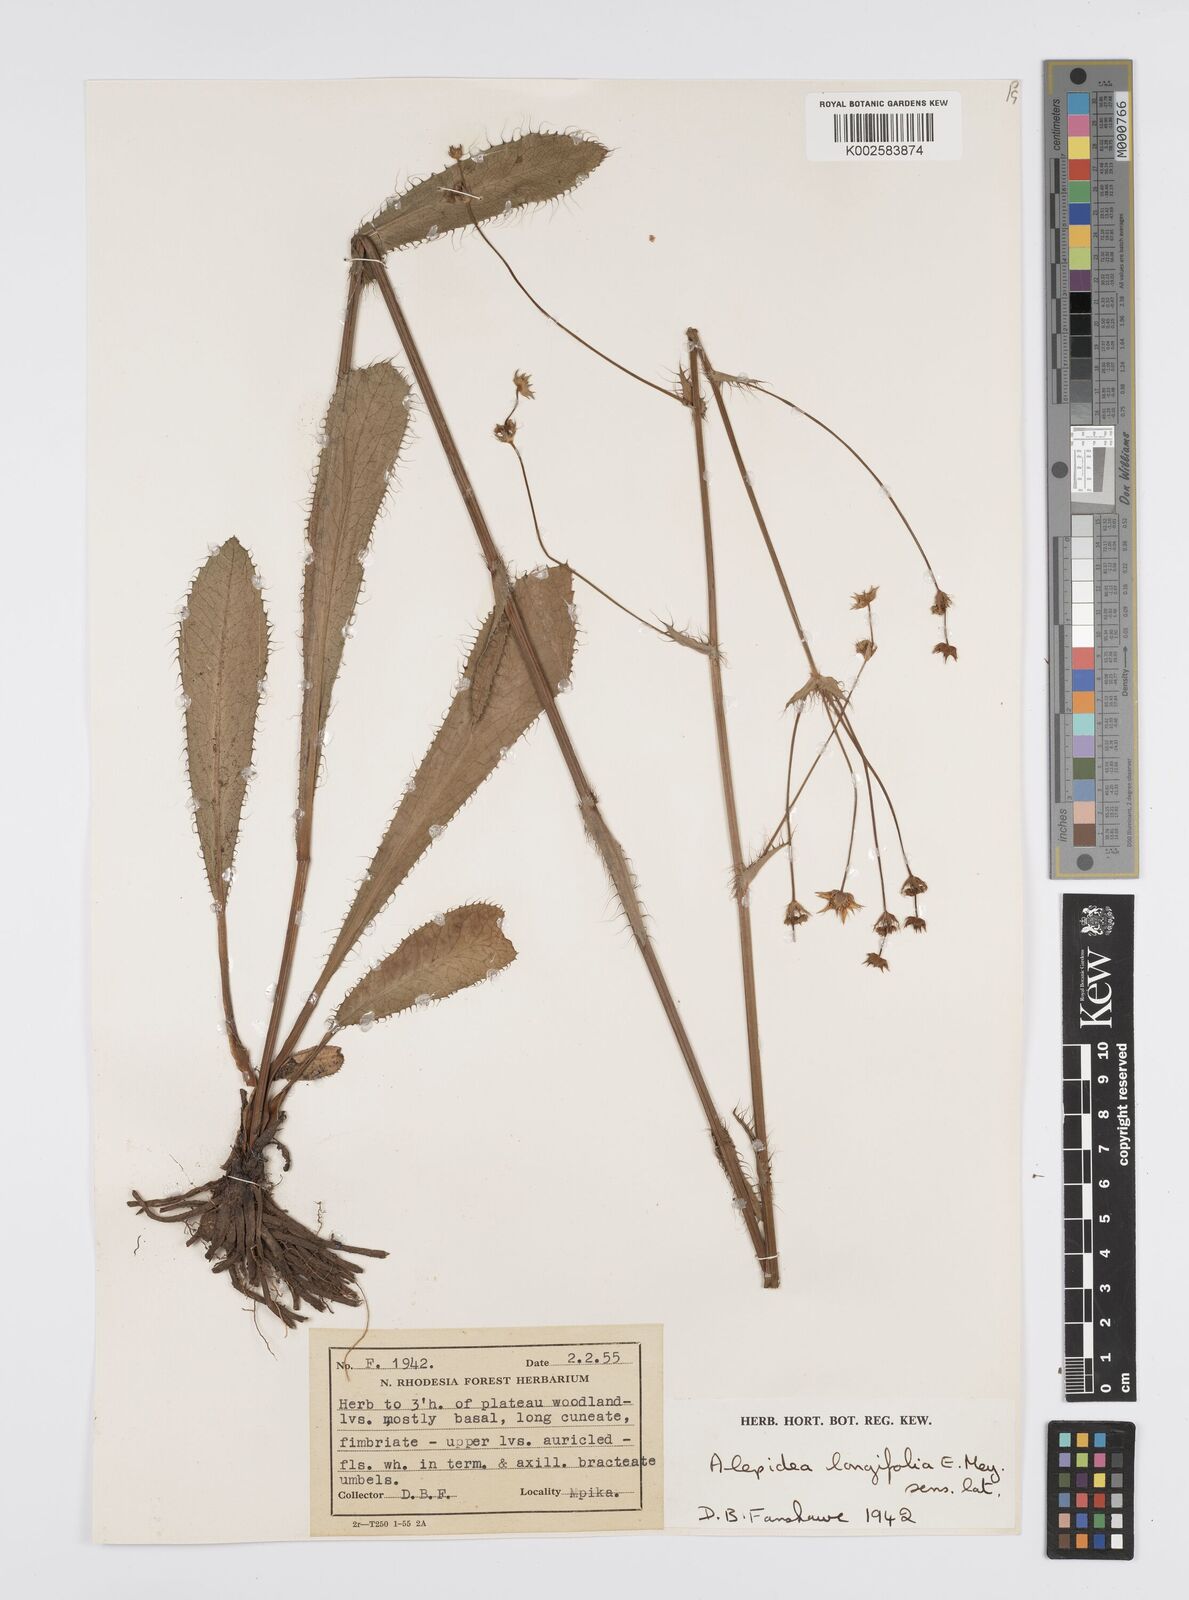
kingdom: Plantae
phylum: Tracheophyta
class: Magnoliopsida
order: Apiales
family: Apiaceae
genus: Alepidea
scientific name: Alepidea
